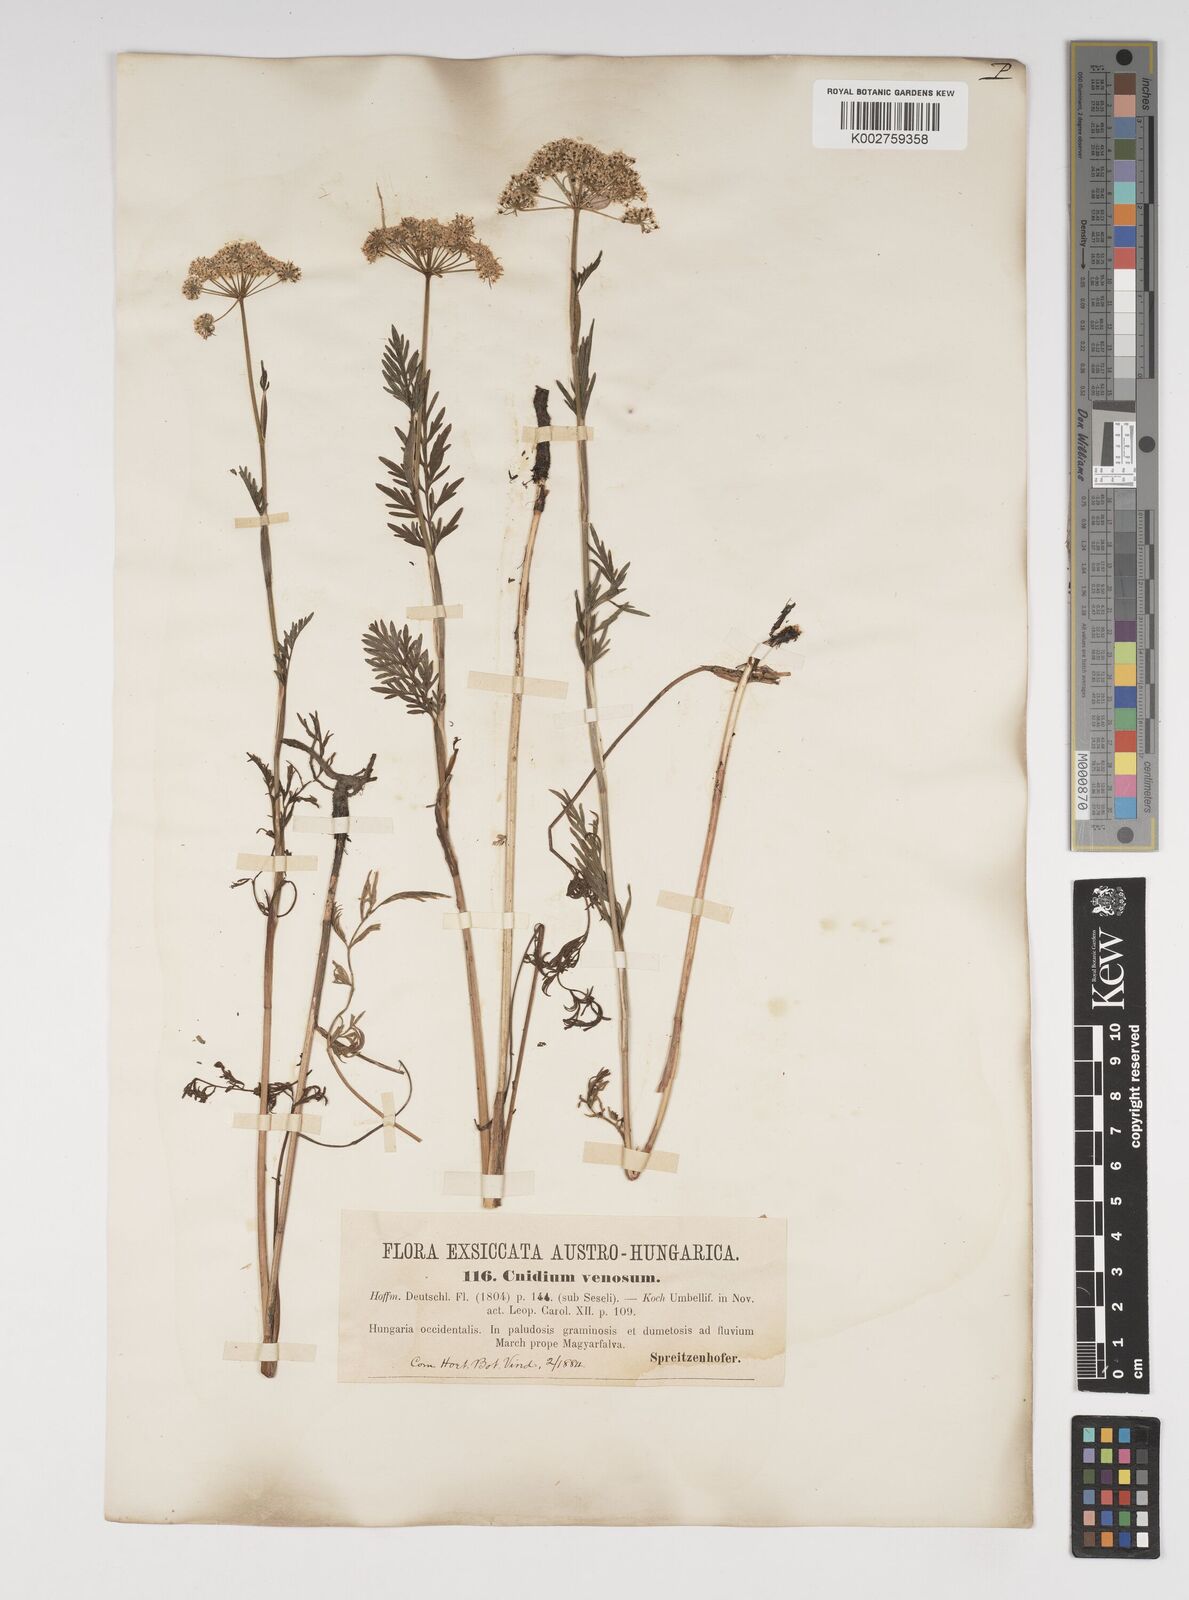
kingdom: Plantae
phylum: Tracheophyta
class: Magnoliopsida
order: Apiales
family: Apiaceae
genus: Kadenia
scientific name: Kadenia dubia
